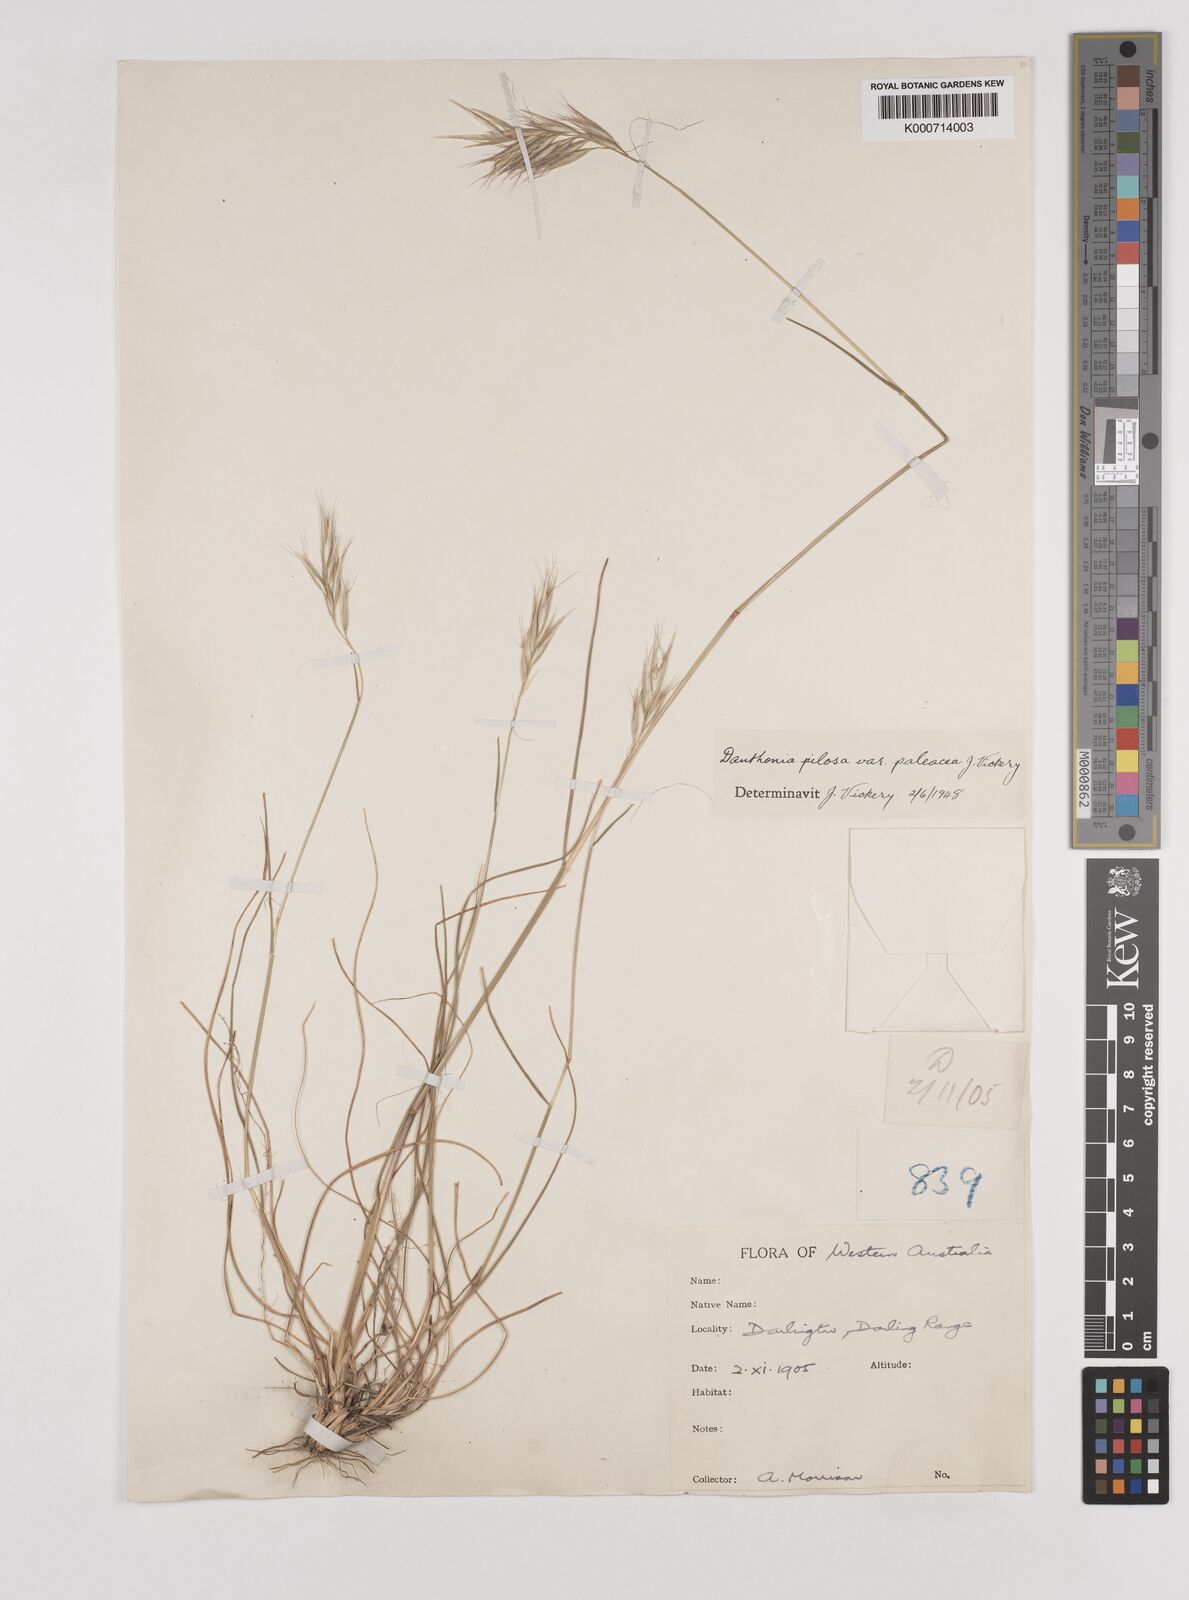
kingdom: Plantae
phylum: Tracheophyta
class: Liliopsida
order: Poales
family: Poaceae
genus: Rytidosperma
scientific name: Rytidosperma pilosum
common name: Hairy wallaby grass
